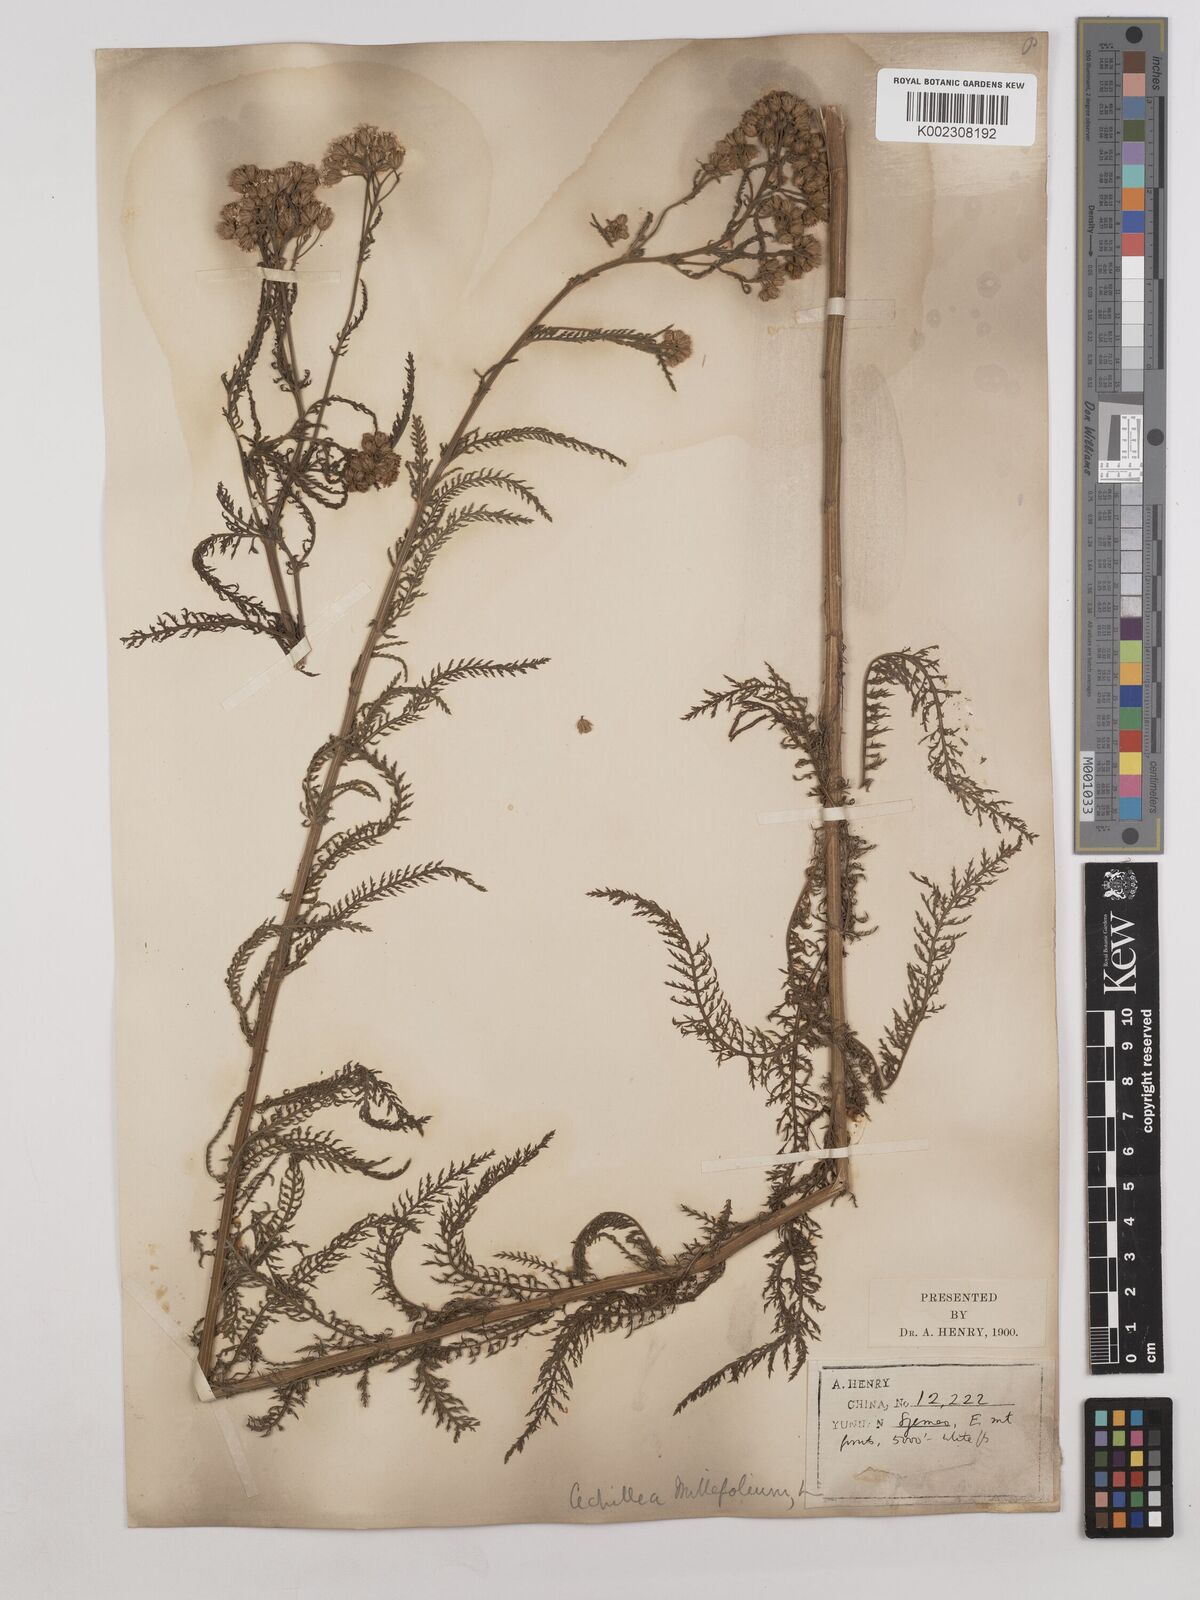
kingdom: Plantae
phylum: Tracheophyta
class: Magnoliopsida
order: Asterales
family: Asteraceae
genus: Achillea
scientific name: Achillea alpina
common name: Siberian yarrow
